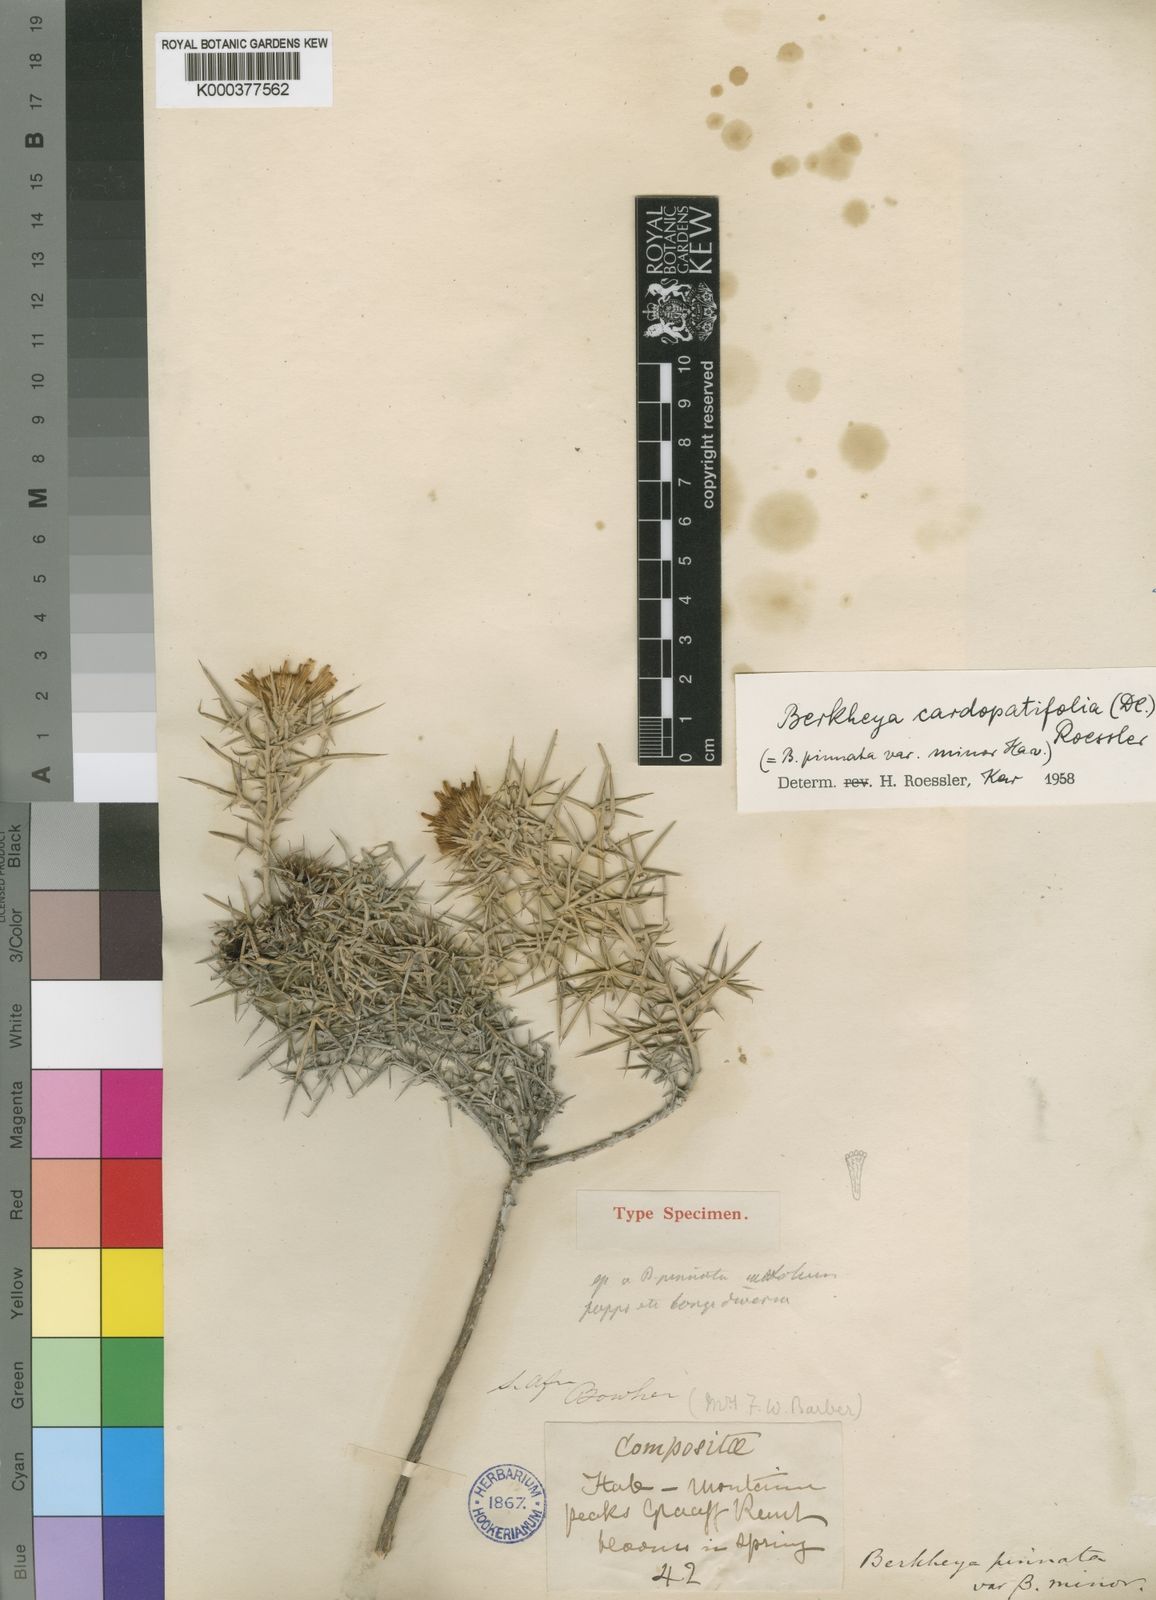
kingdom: Plantae
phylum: Tracheophyta
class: Magnoliopsida
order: Asterales
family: Asteraceae
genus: Berkheya
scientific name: Berkheya cardopatifolia
